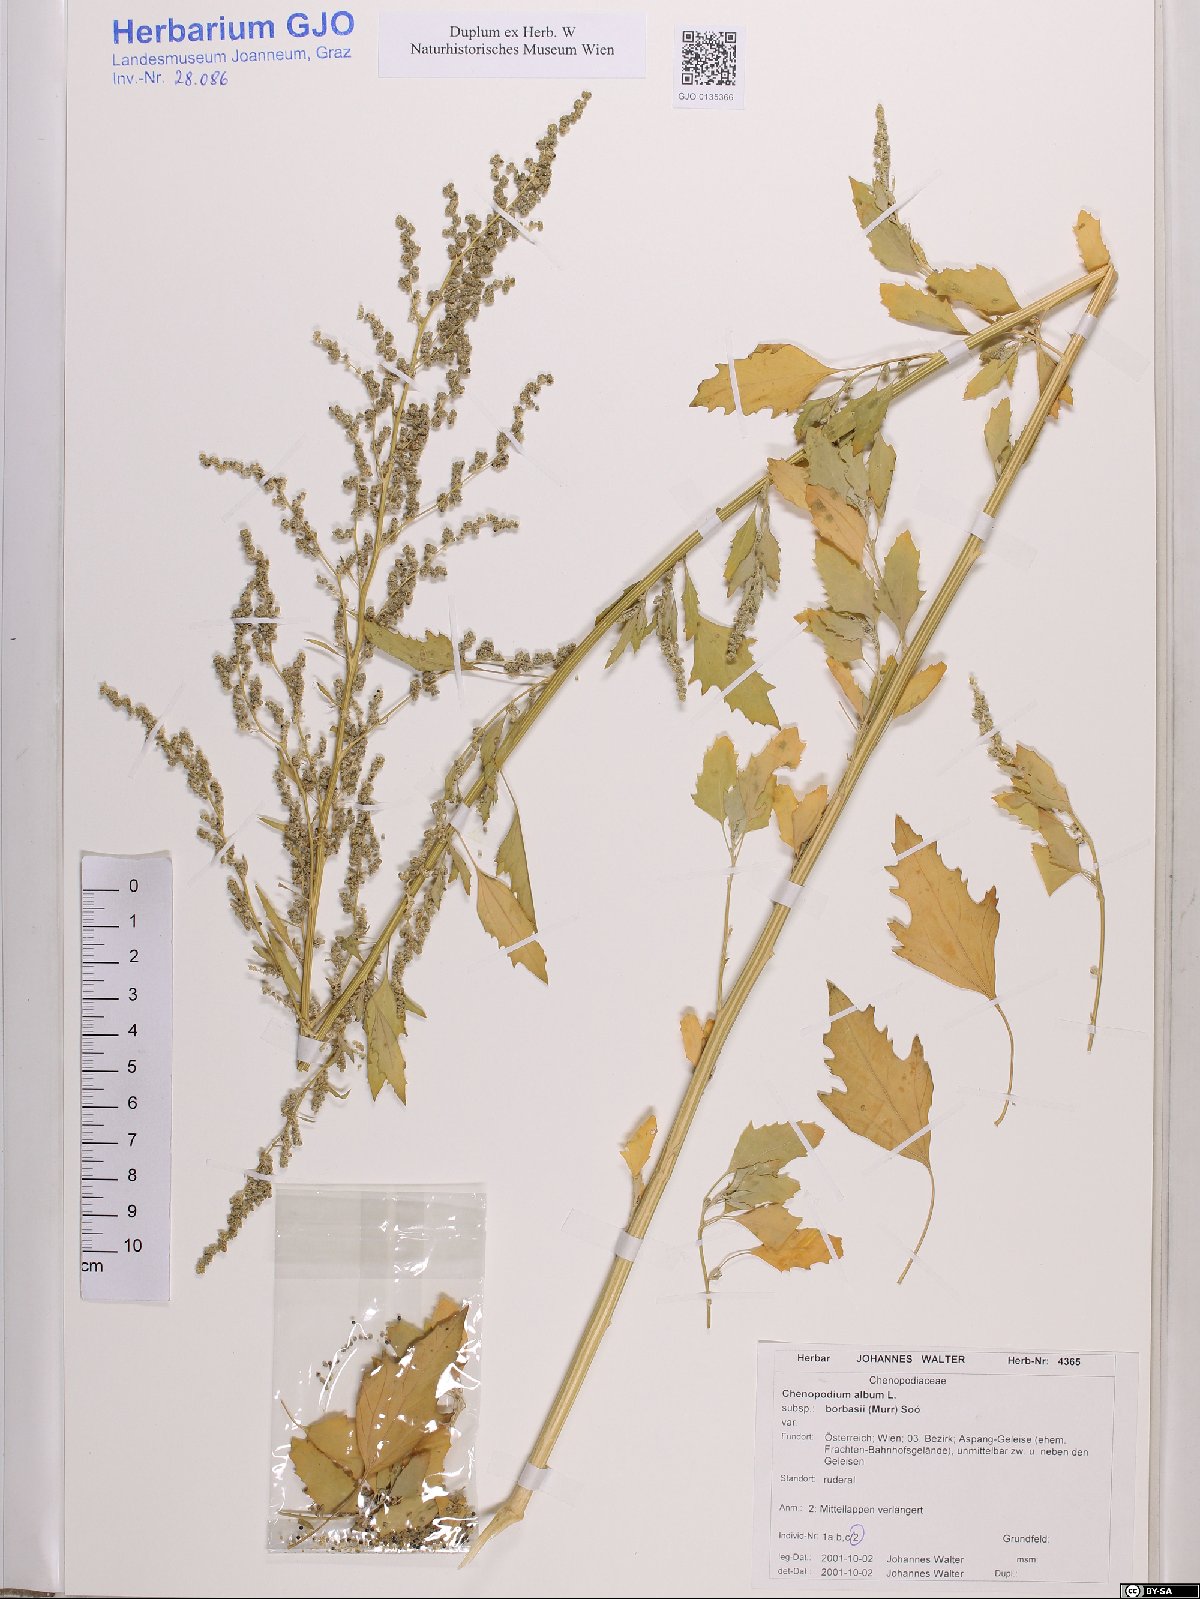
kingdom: Plantae
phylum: Tracheophyta
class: Magnoliopsida
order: Caryophyllales
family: Amaranthaceae
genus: Chenopodium
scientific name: Chenopodium borbasii
